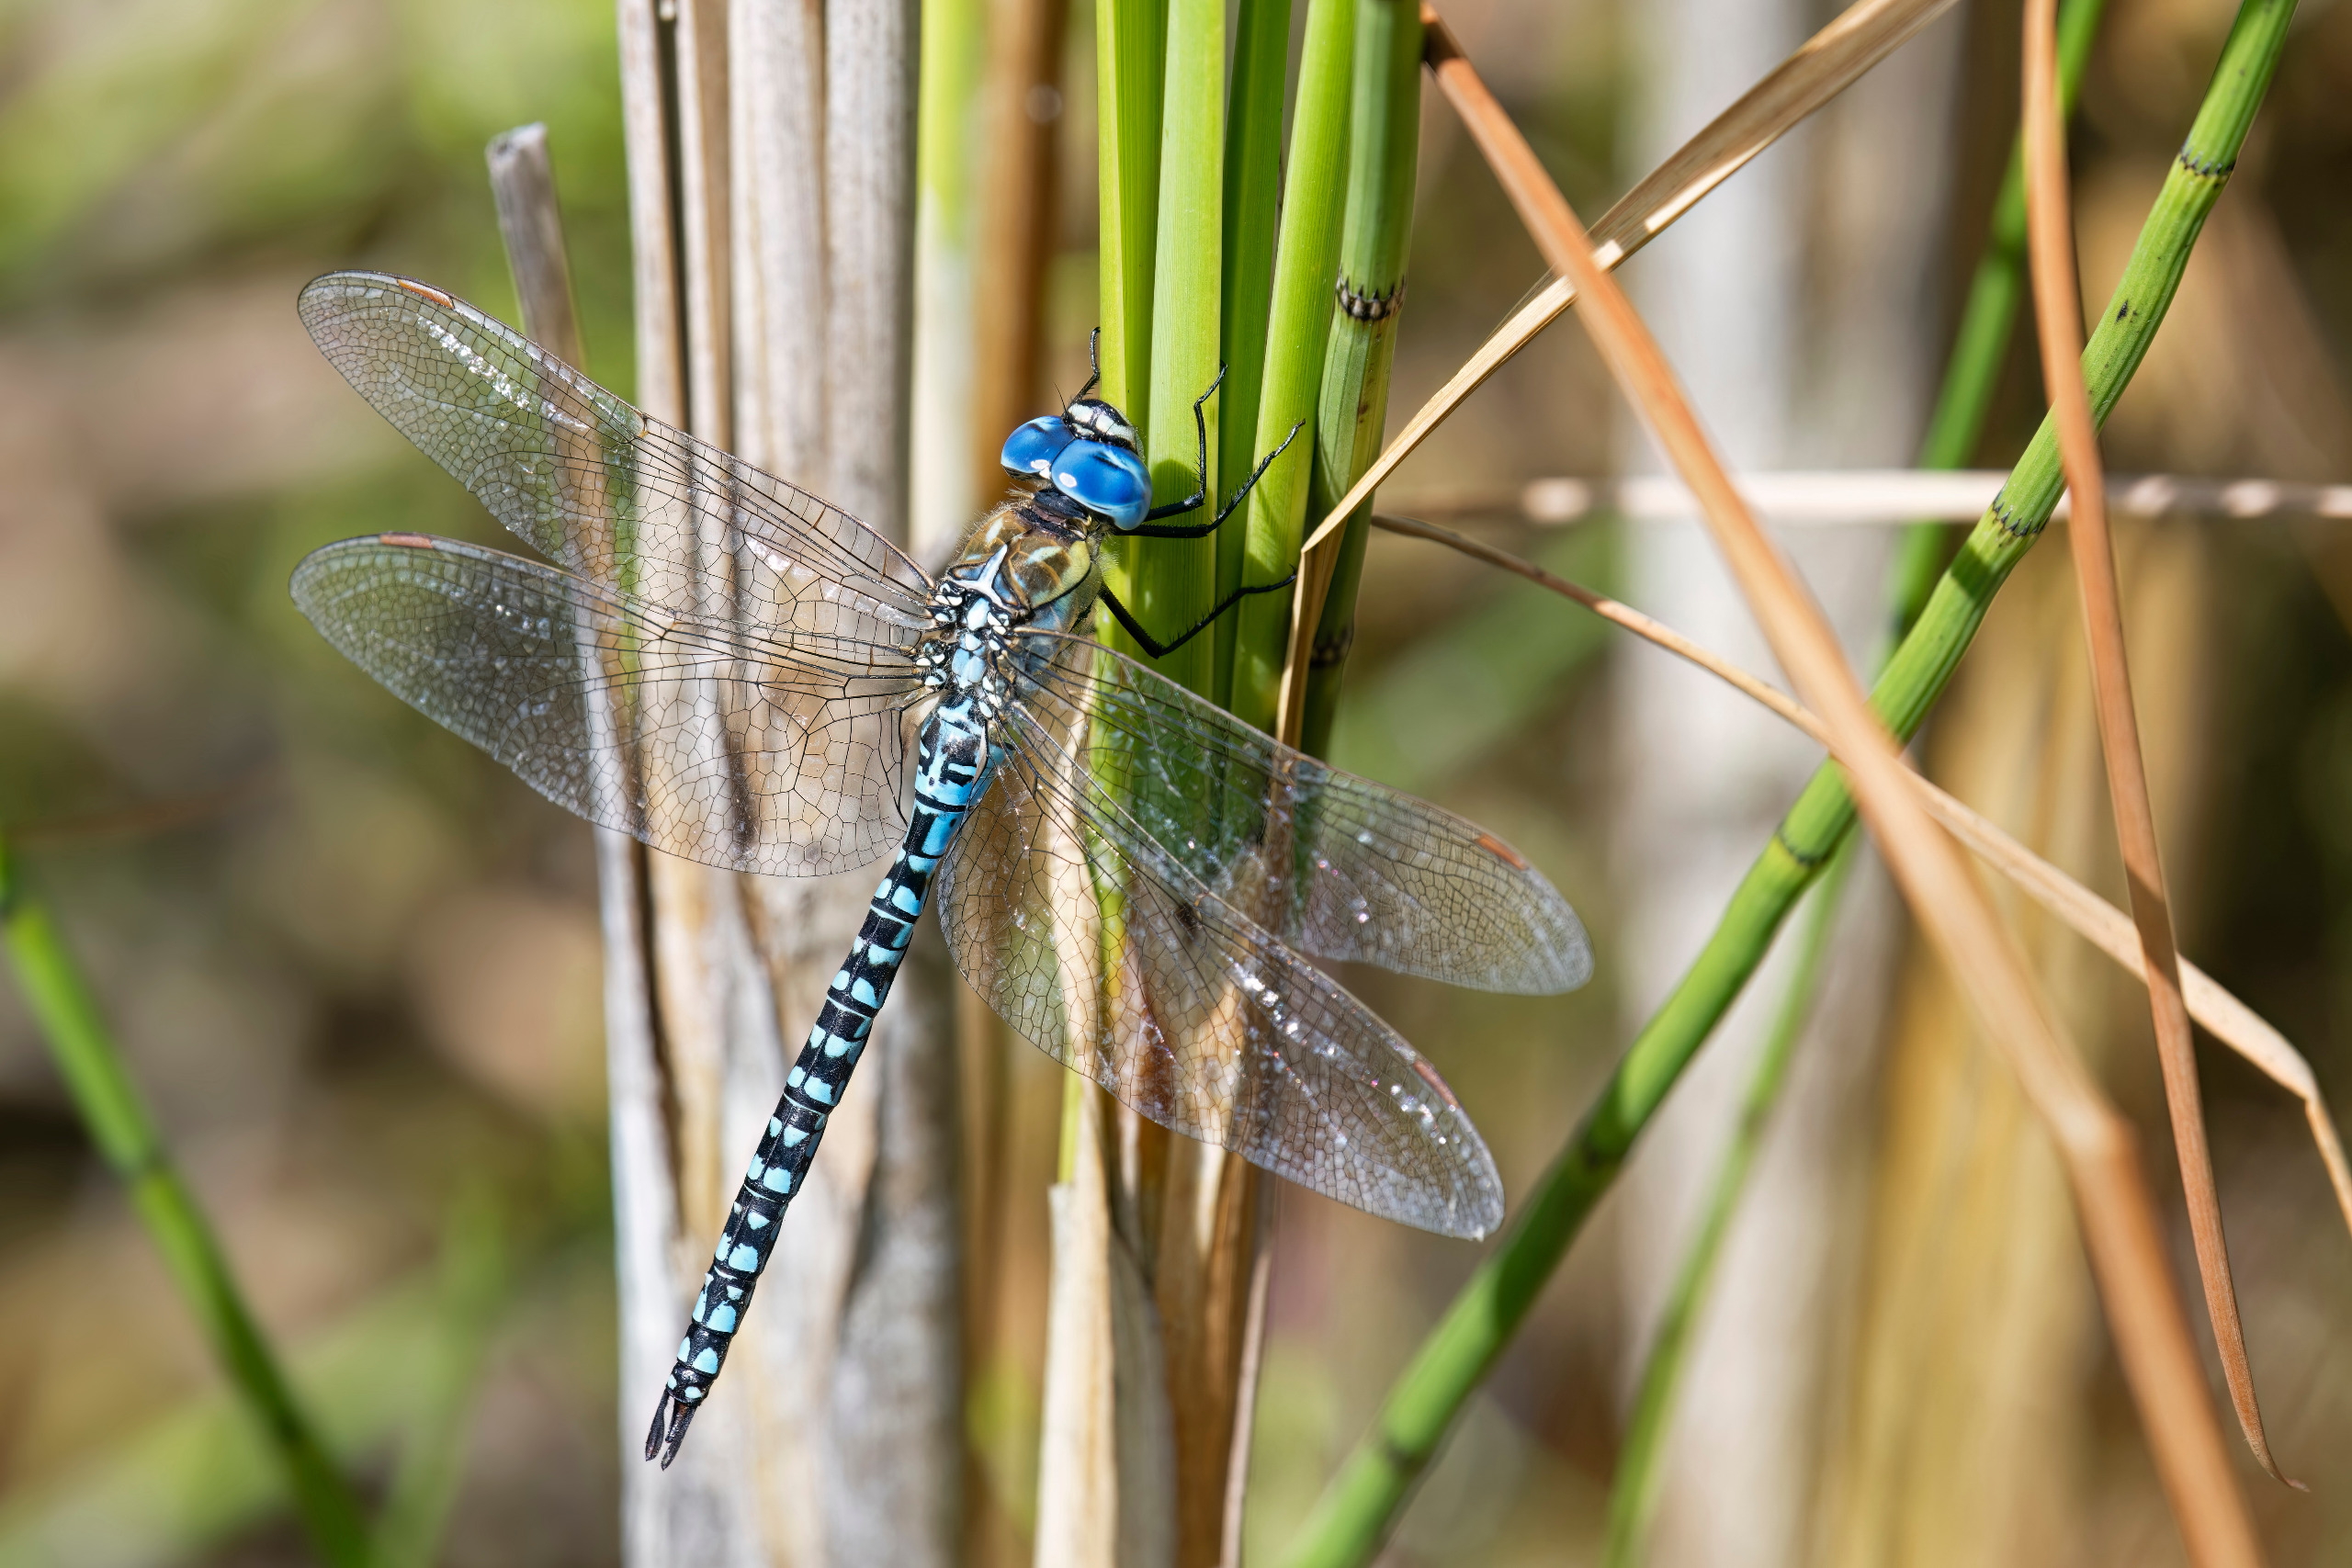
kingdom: Animalia
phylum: Arthropoda
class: Insecta
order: Odonata
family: Aeshnidae
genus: Aeshna
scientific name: Aeshna affinis
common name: Sydlig mosaikguldsmed
